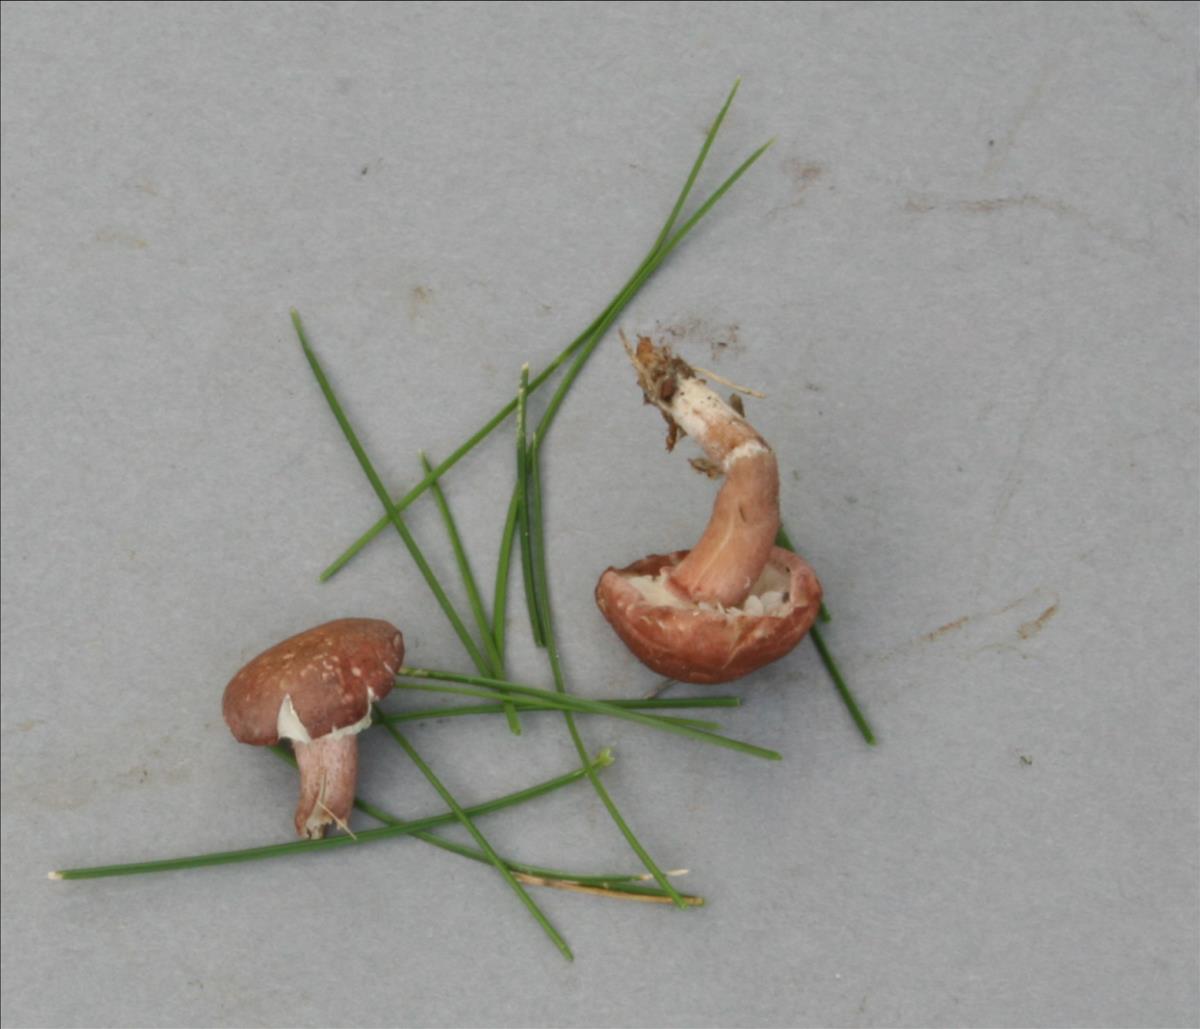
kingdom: Fungi
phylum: Basidiomycota
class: Agaricomycetes
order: Agaricales
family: Lyophyllaceae
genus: Calocybe
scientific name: Calocybe carnea
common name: Pink domecap
